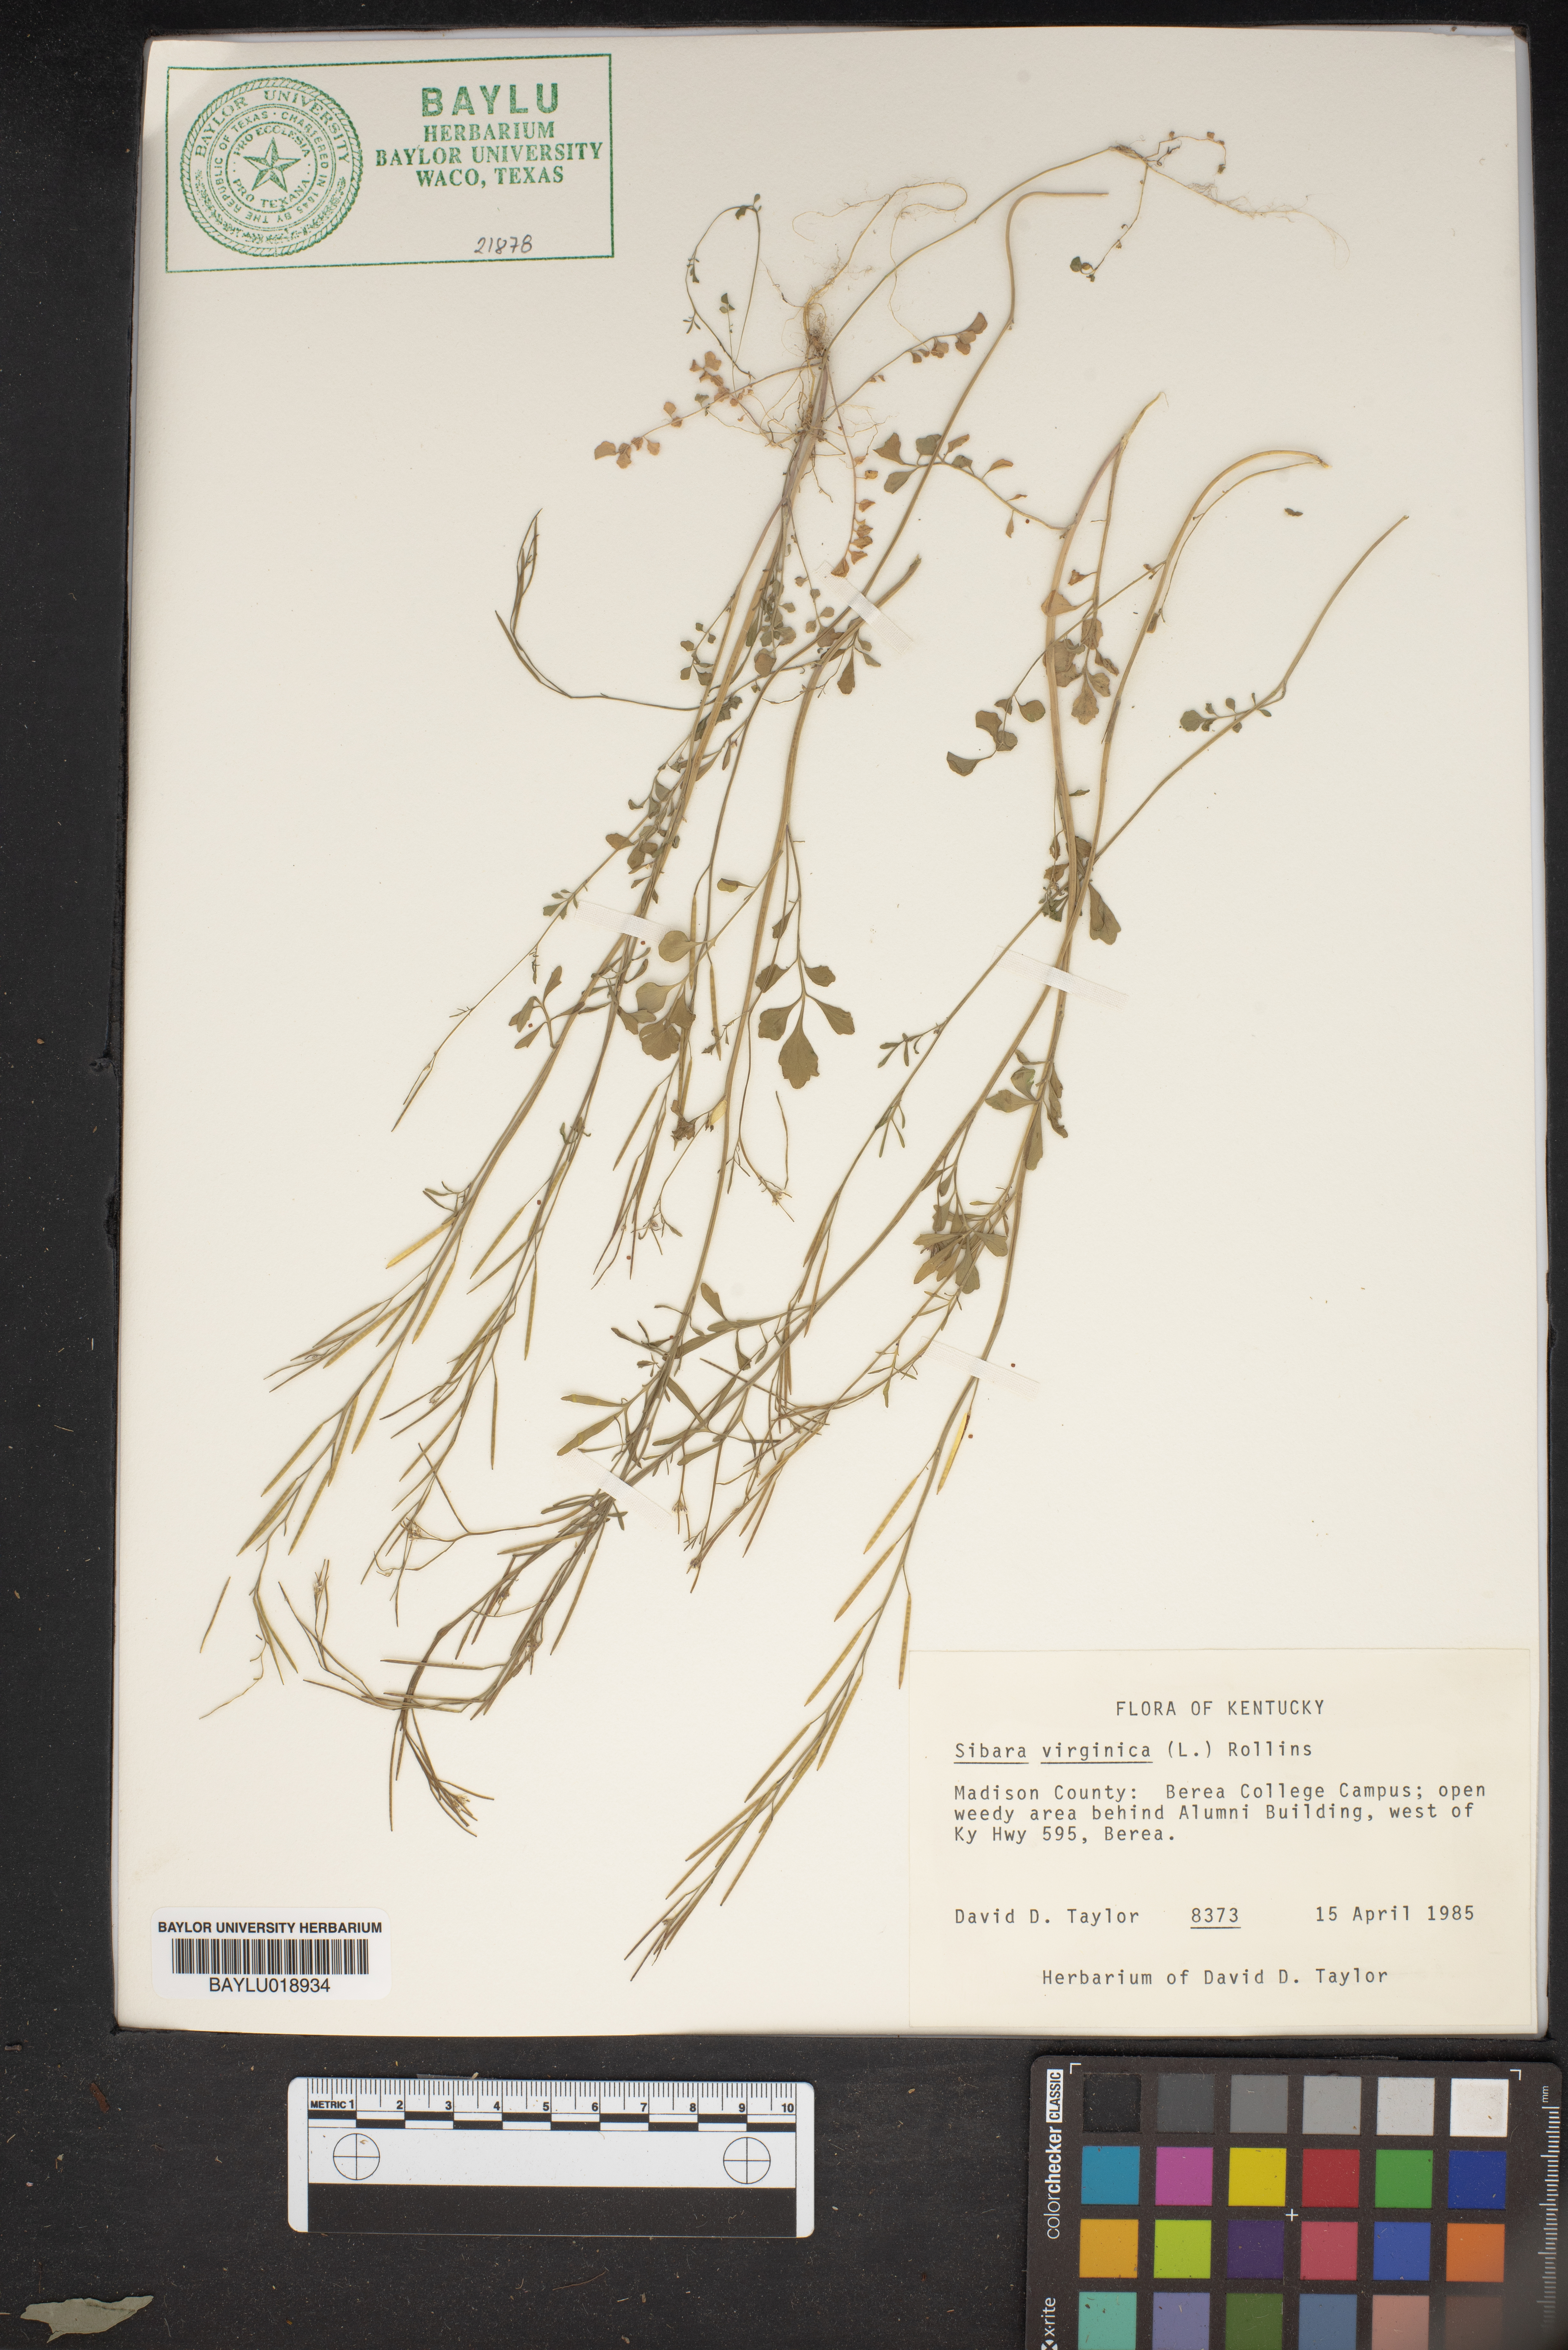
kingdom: Plantae
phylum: Tracheophyta
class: Magnoliopsida
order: Brassicales
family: Brassicaceae
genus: Planodes
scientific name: Planodes virginicum
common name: Virginia cress
